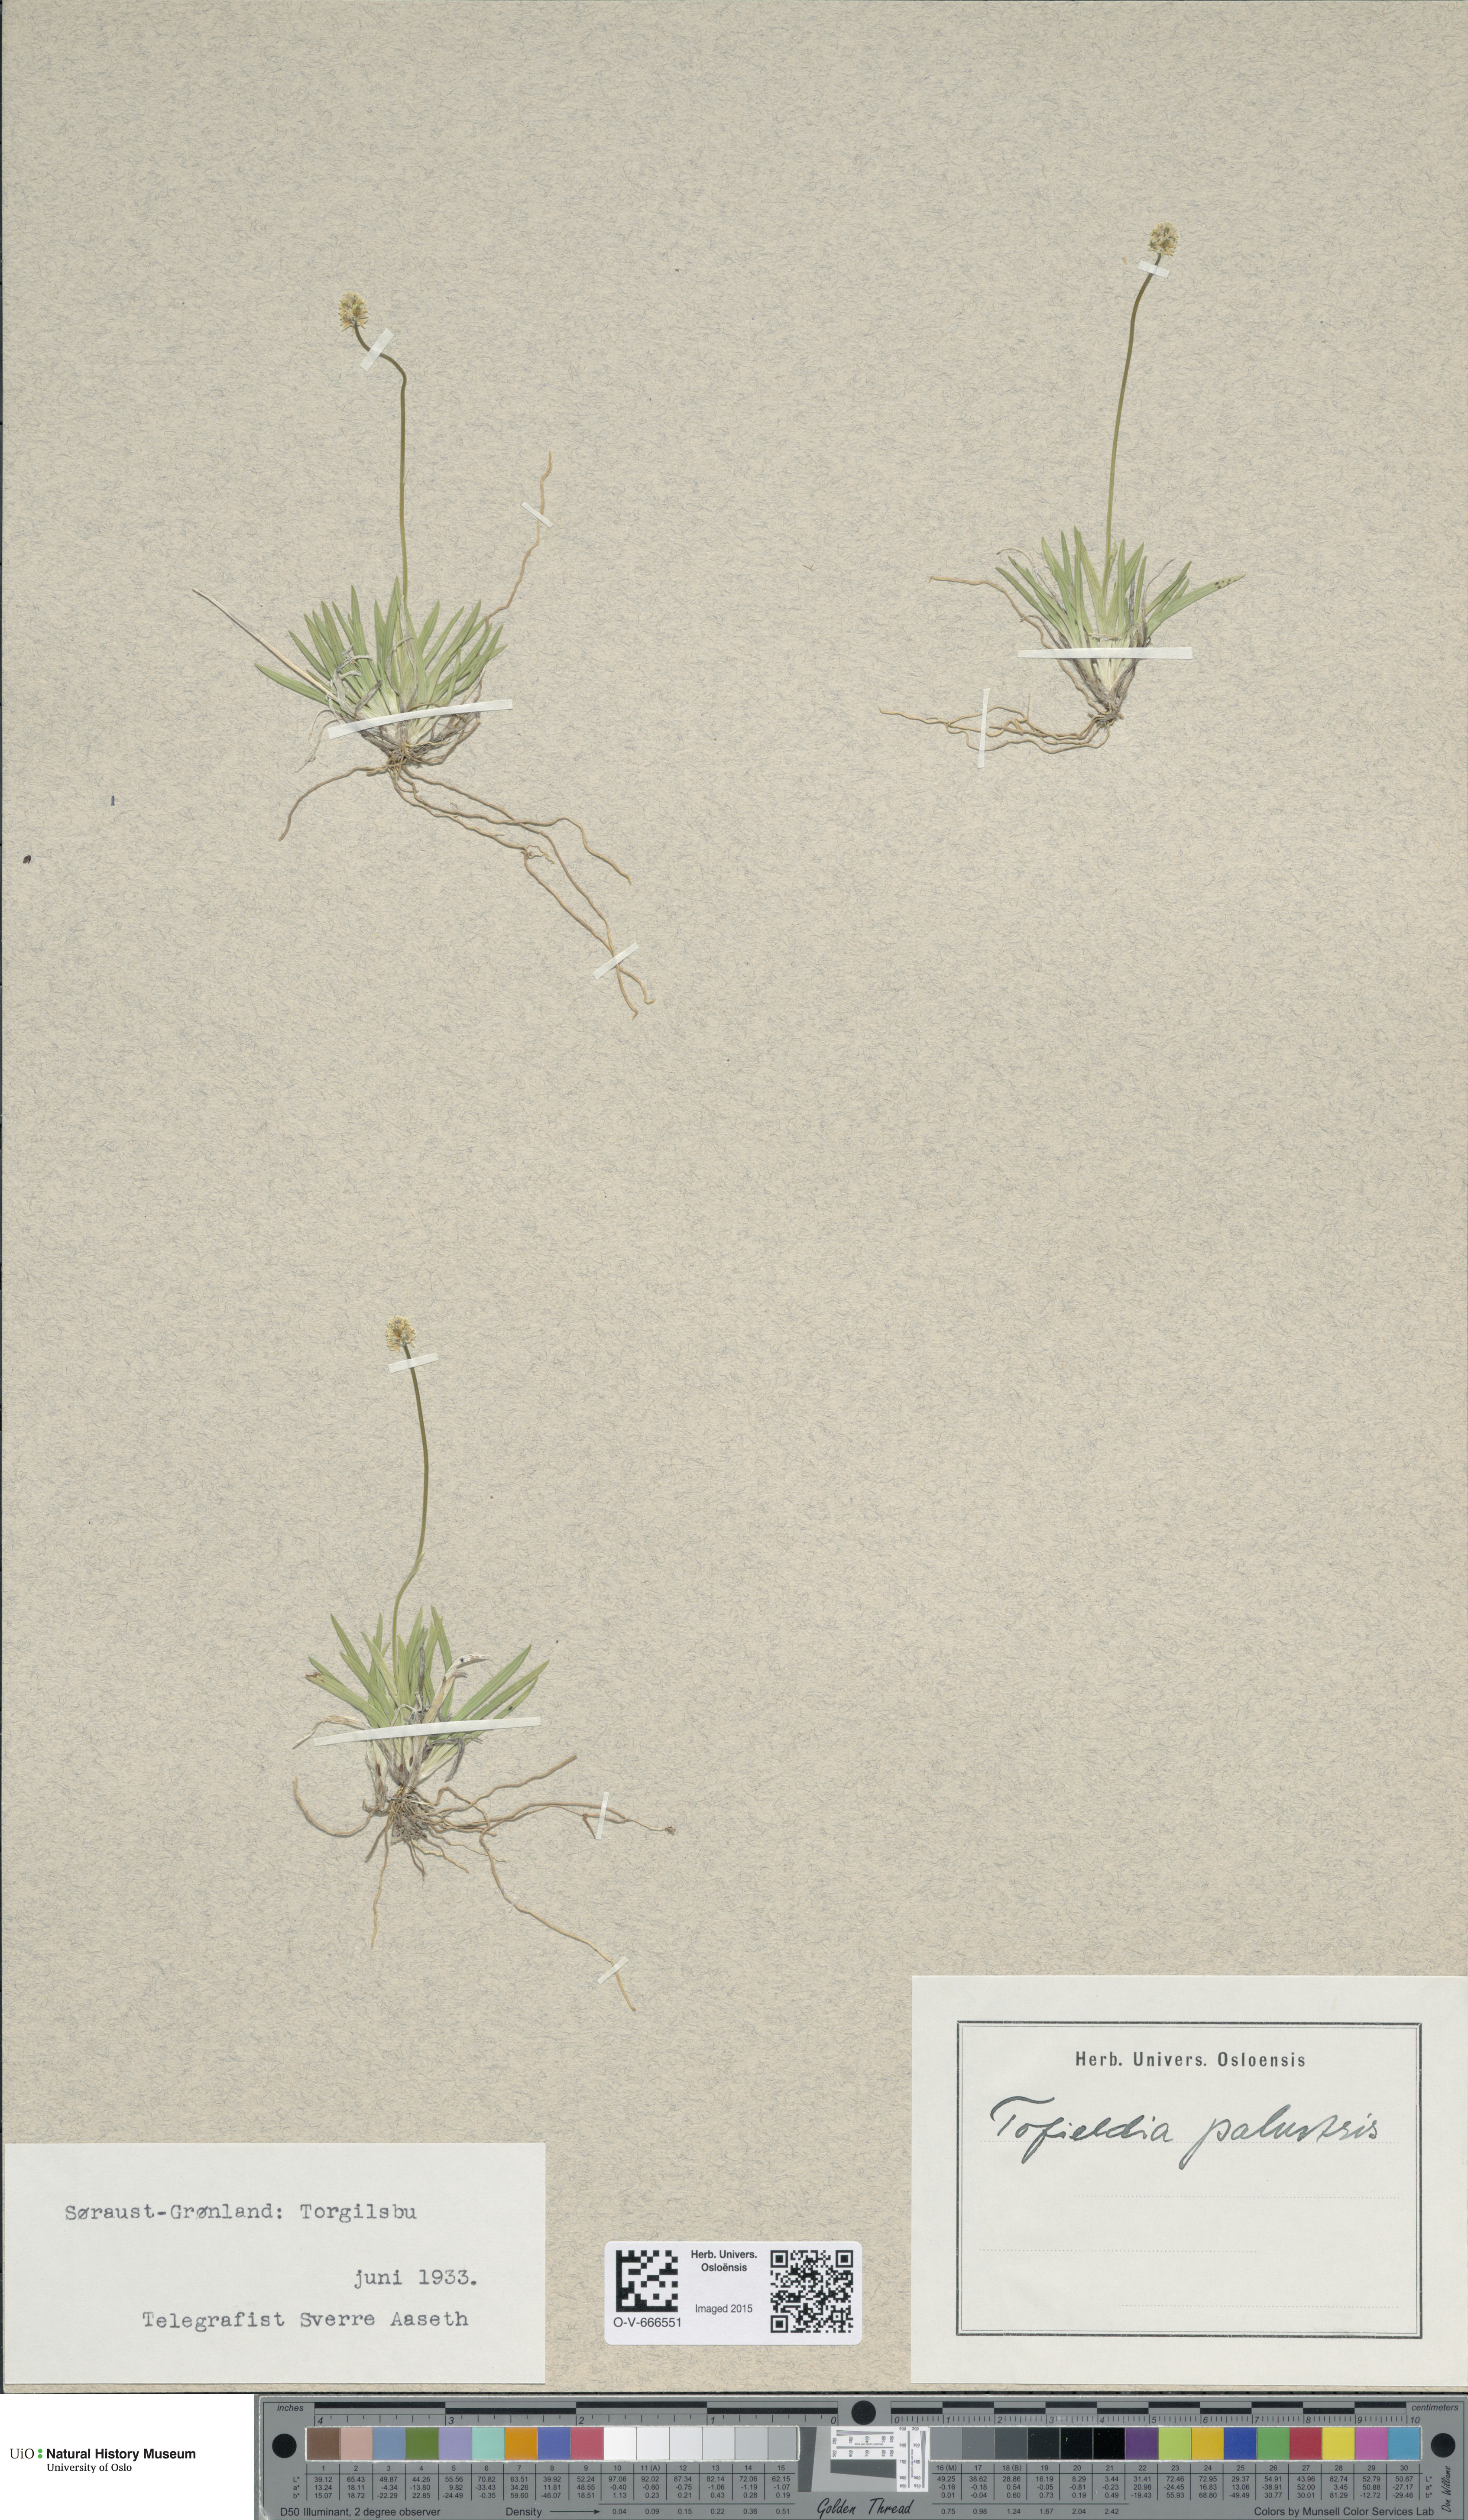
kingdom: Plantae
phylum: Tracheophyta
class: Liliopsida
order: Alismatales
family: Tofieldiaceae
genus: Tofieldia
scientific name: Tofieldia pusilla
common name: Scottish false asphodel
